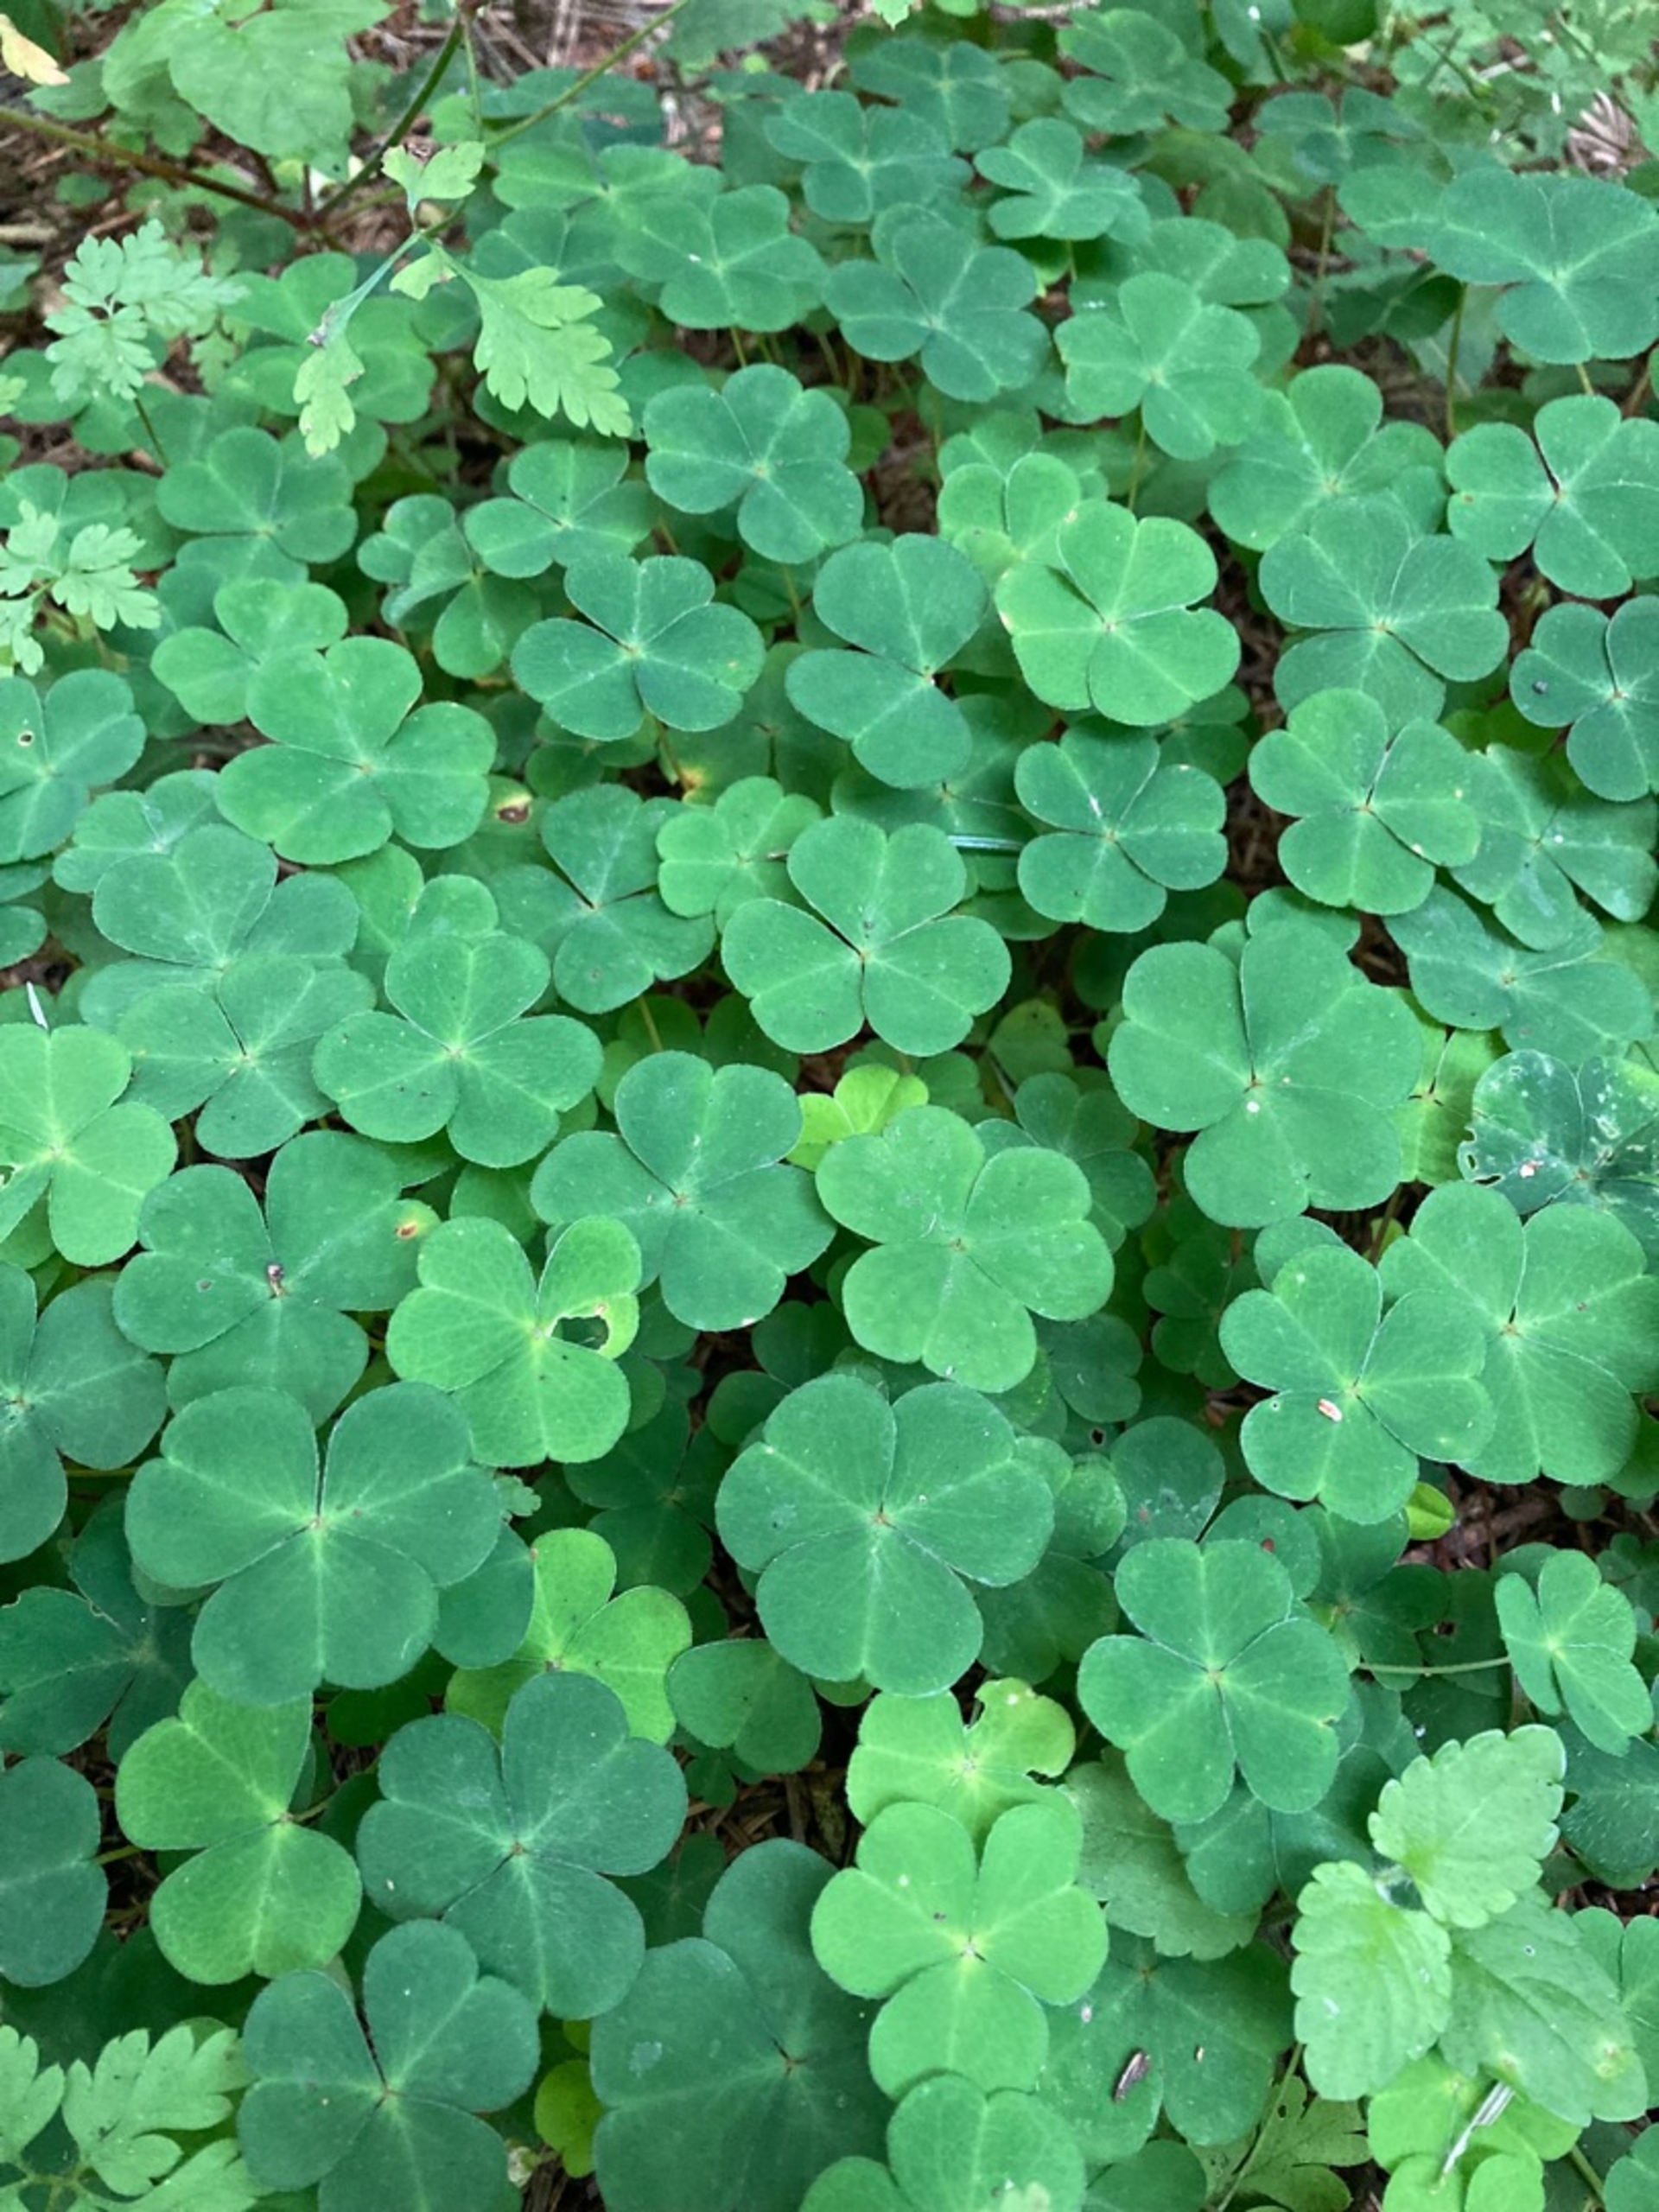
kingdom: Plantae
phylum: Tracheophyta
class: Magnoliopsida
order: Oxalidales
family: Oxalidaceae
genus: Oxalis
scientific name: Oxalis acetosella
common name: Skovsyre
